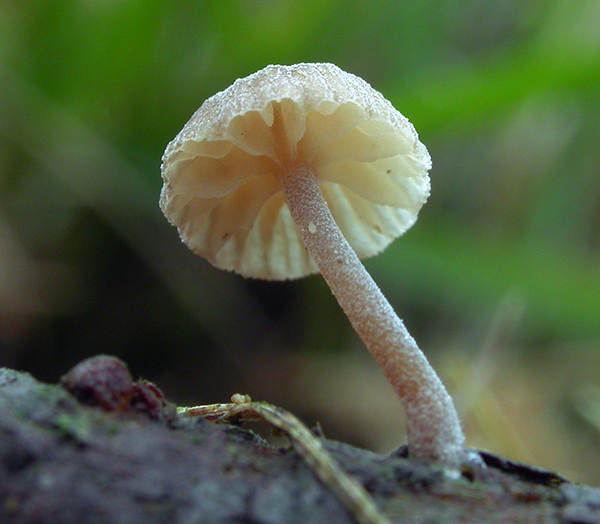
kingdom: Fungi
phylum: Basidiomycota
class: Agaricomycetes
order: Agaricales
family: Mycenaceae
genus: Mycena
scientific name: Mycena juniperina
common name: ene-Huesvamp
